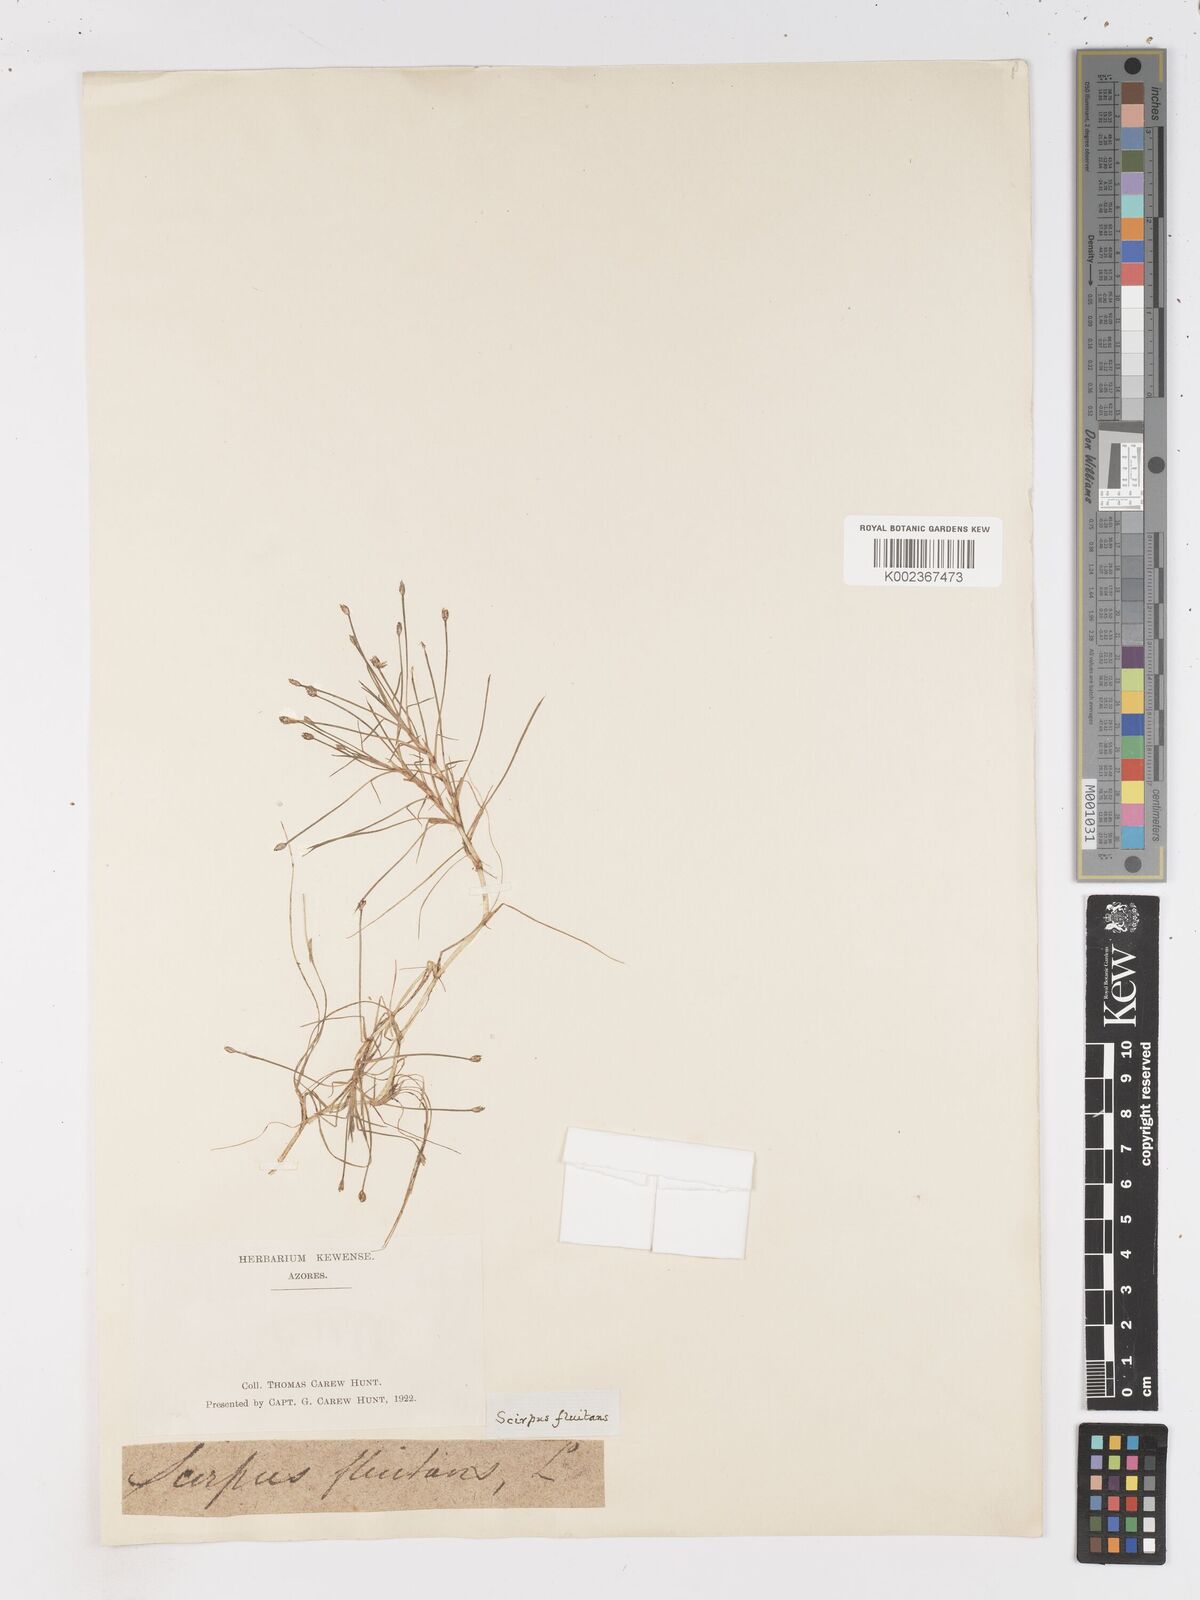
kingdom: Plantae
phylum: Tracheophyta
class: Liliopsida
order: Poales
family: Cyperaceae
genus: Isolepis
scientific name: Isolepis fluitans
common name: Floating club-rush
